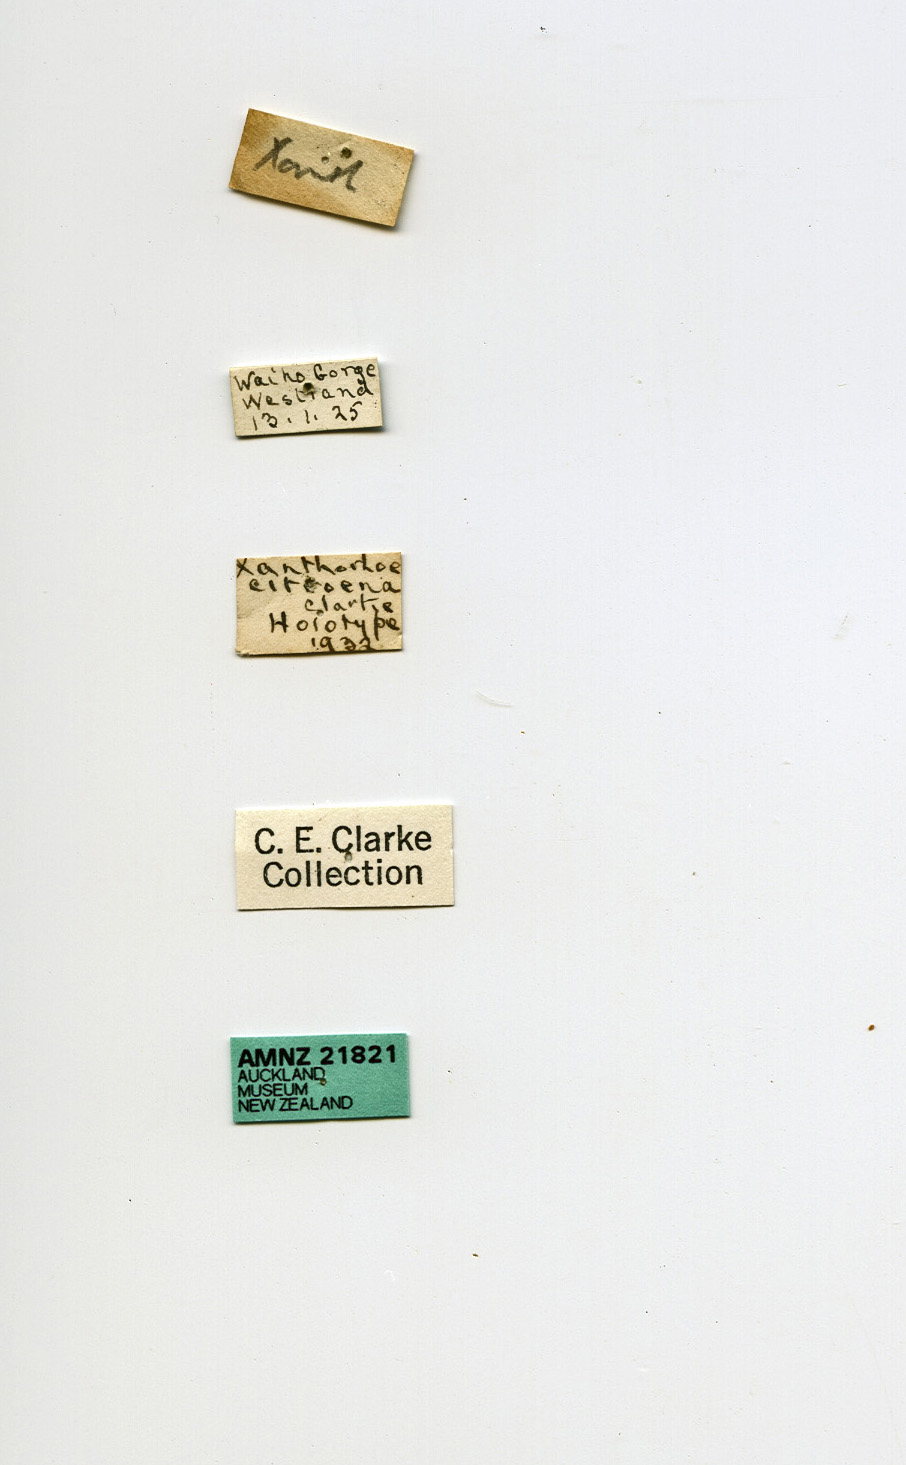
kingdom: Animalia
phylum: Arthropoda
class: Insecta
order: Lepidoptera
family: Geometridae
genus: Asaphodes
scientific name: Asaphodes citroena
